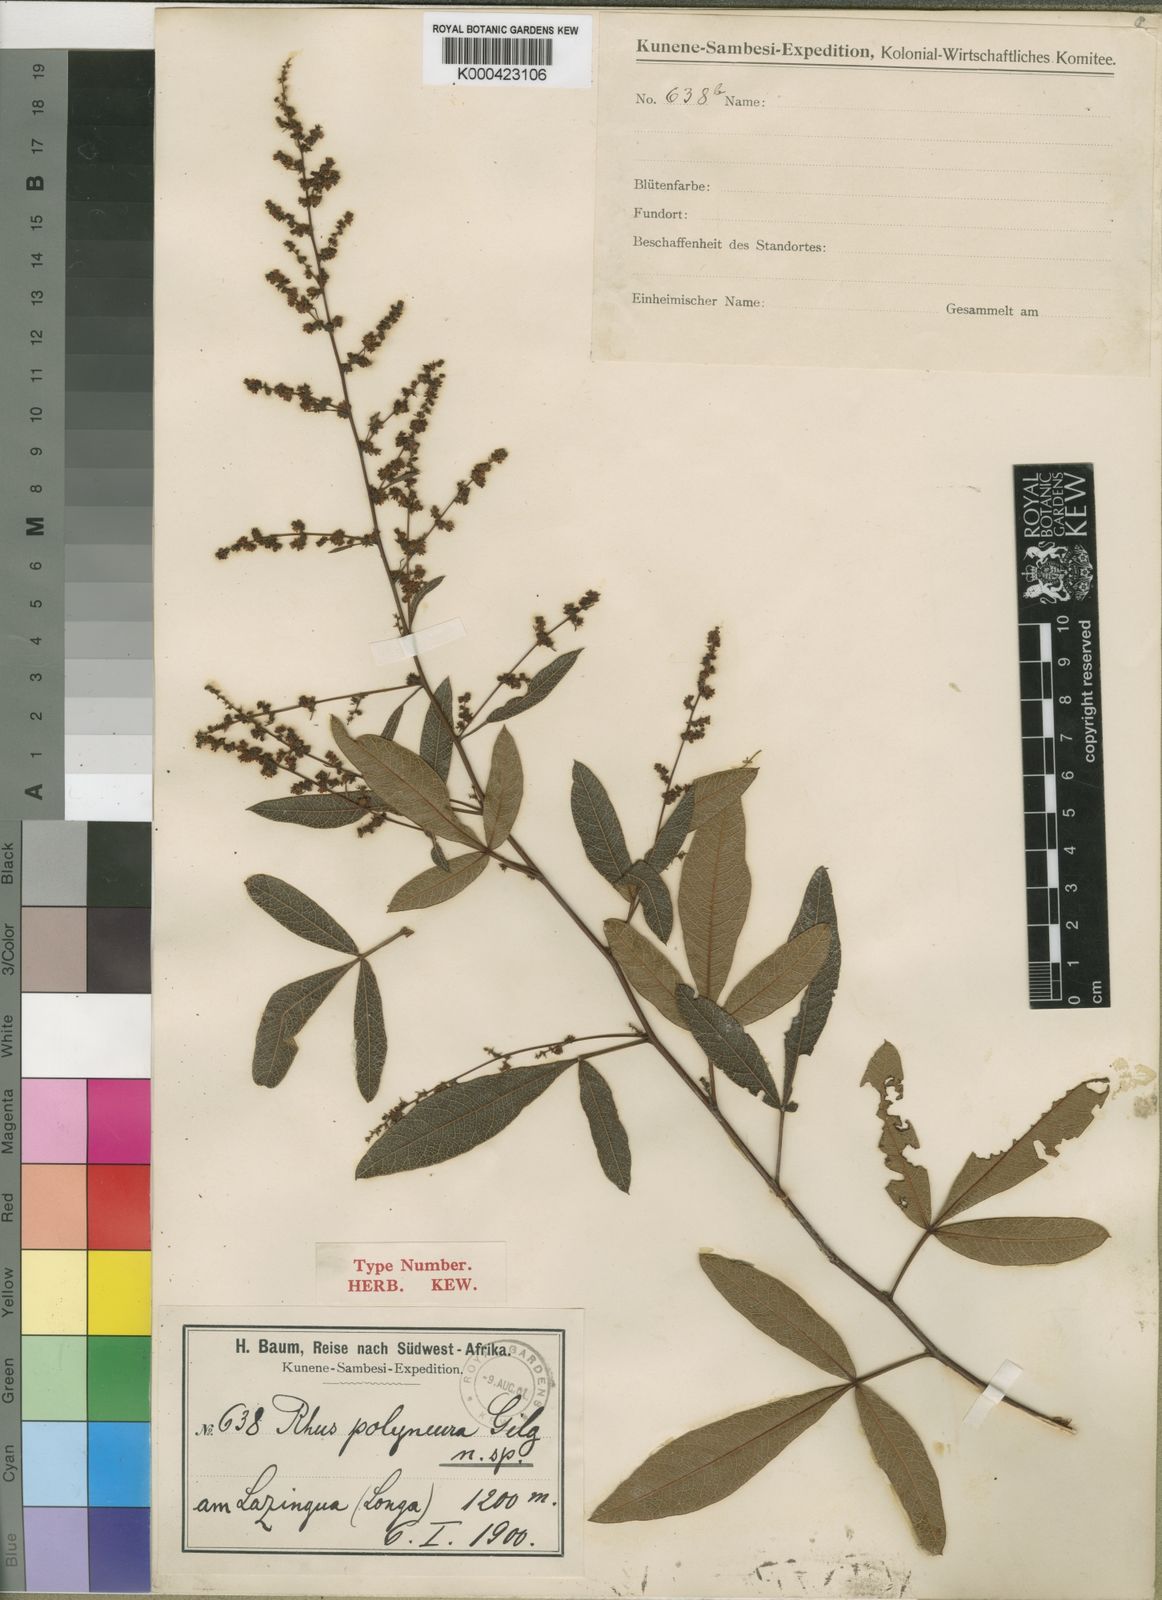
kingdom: Plantae
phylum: Tracheophyta
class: Magnoliopsida
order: Sapindales
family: Anacardiaceae
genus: Searsia
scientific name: Searsia kirkii
